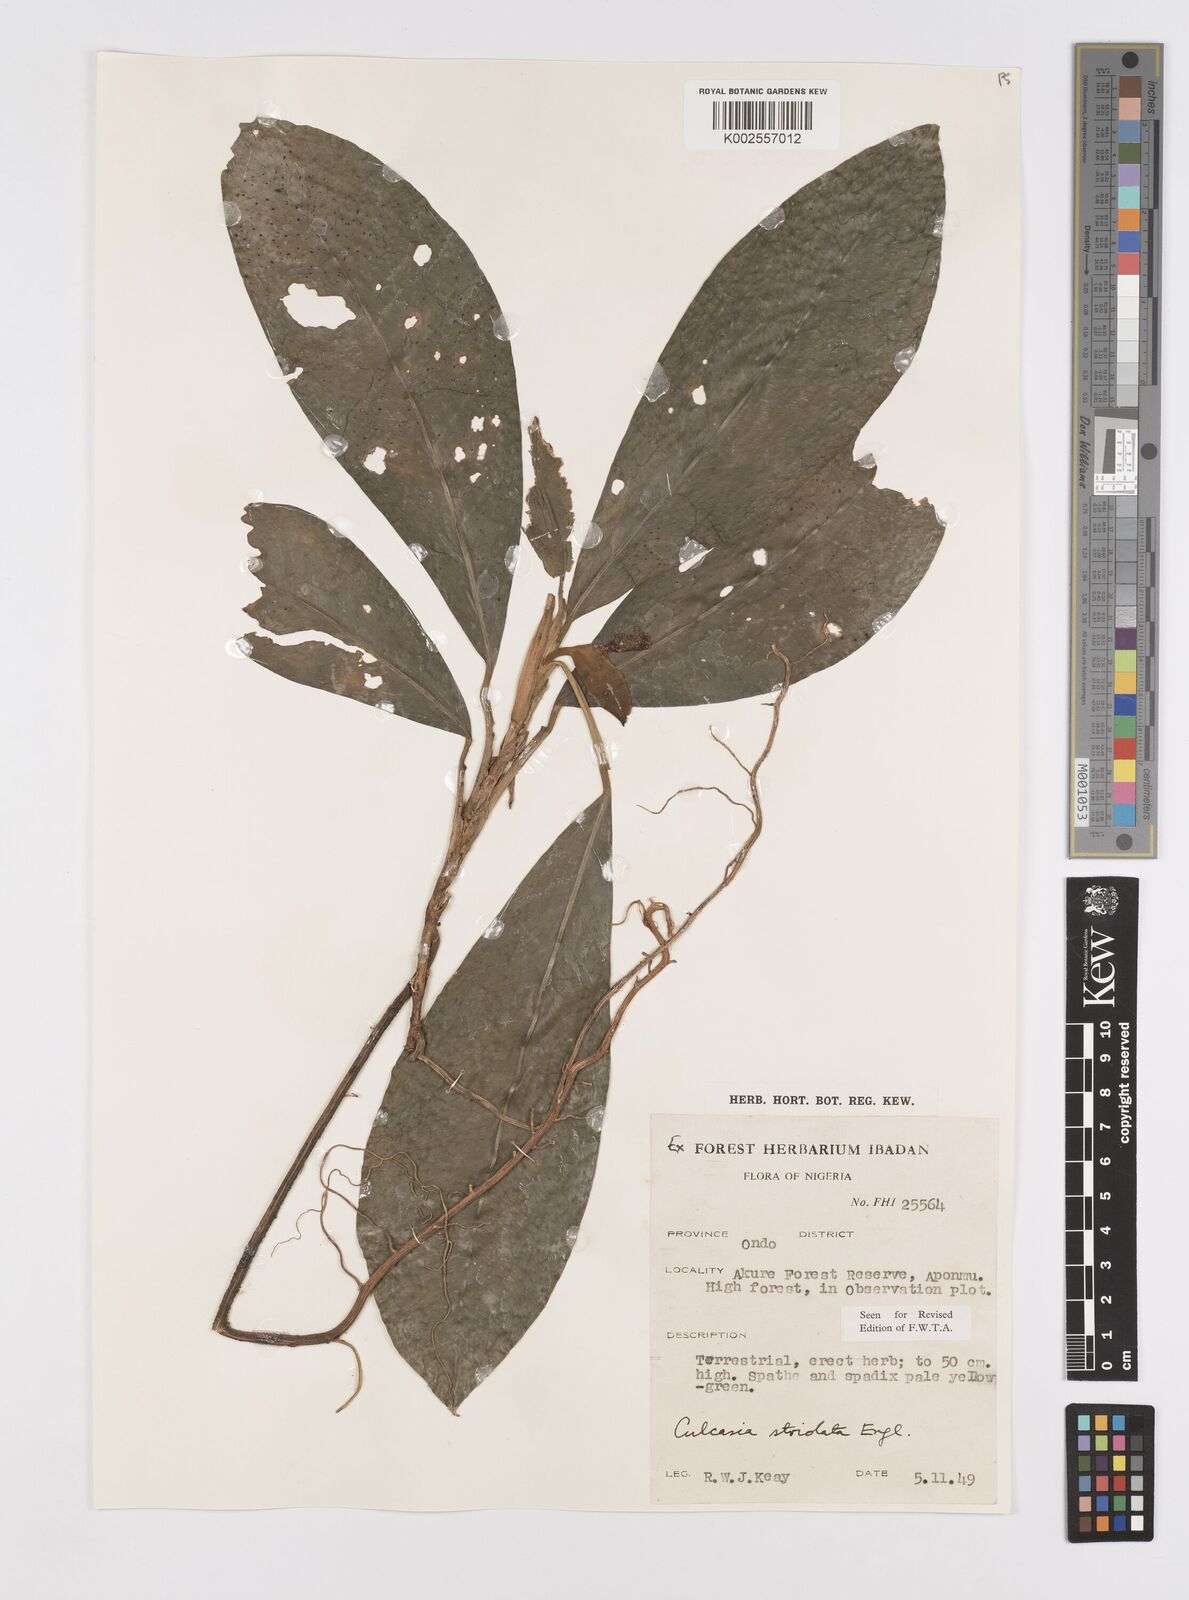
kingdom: Plantae
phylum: Tracheophyta
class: Liliopsida
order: Alismatales
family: Araceae
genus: Culcasia
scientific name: Culcasia striolata
